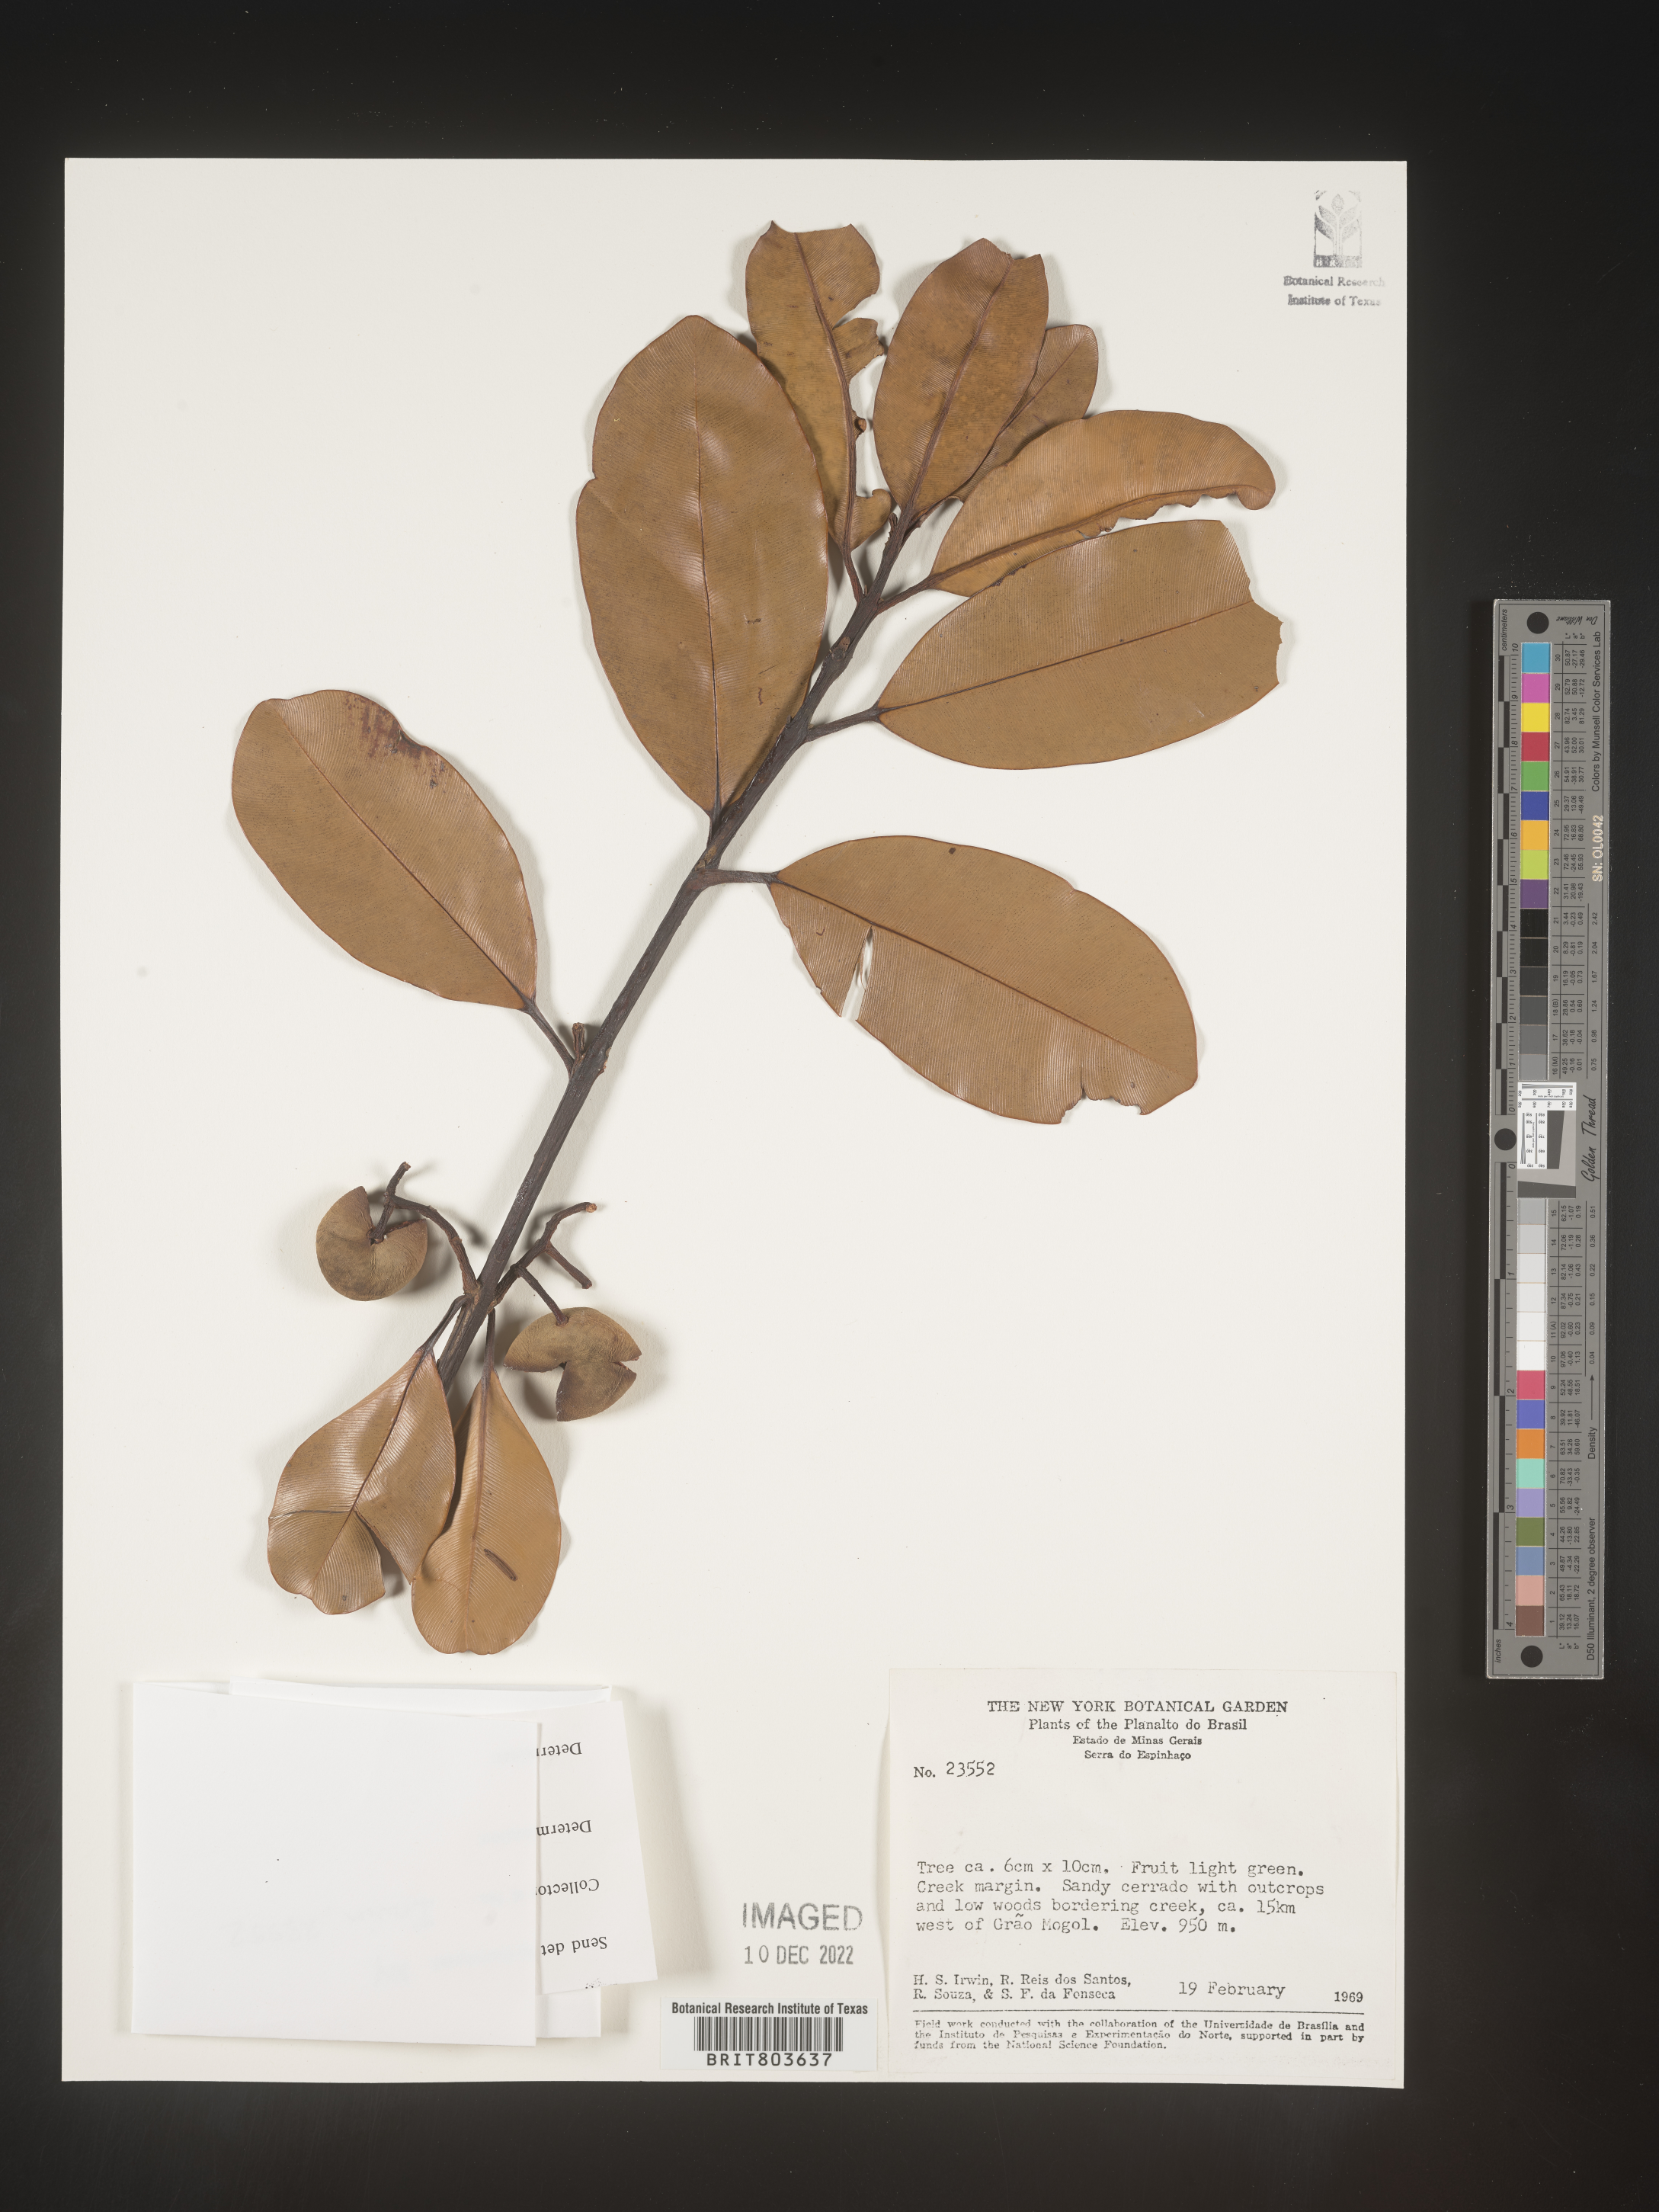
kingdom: Plantae
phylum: Tracheophyta
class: Magnoliopsida
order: Malpighiales
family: Clusiaceae
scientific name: Clusiaceae
